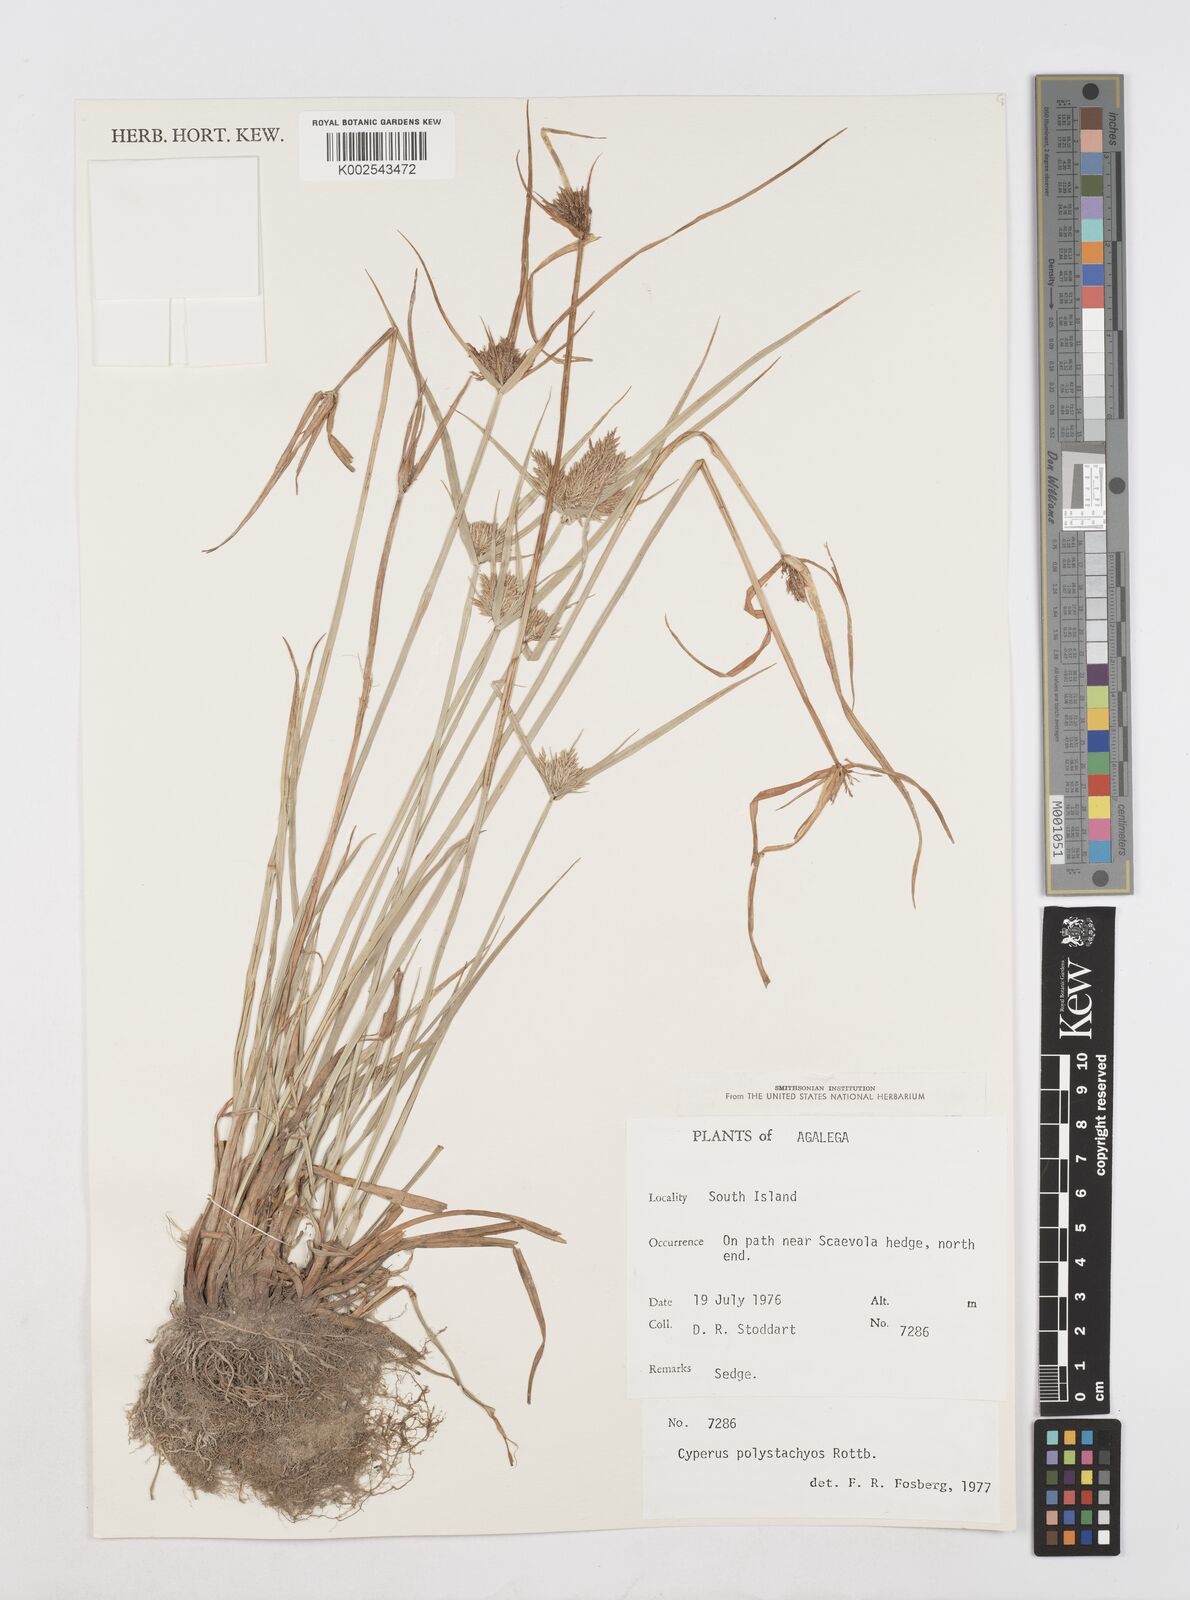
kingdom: Plantae
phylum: Tracheophyta
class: Liliopsida
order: Poales
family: Cyperaceae
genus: Cyperus
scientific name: Cyperus polystachyos
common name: Bunchy flat sedge
